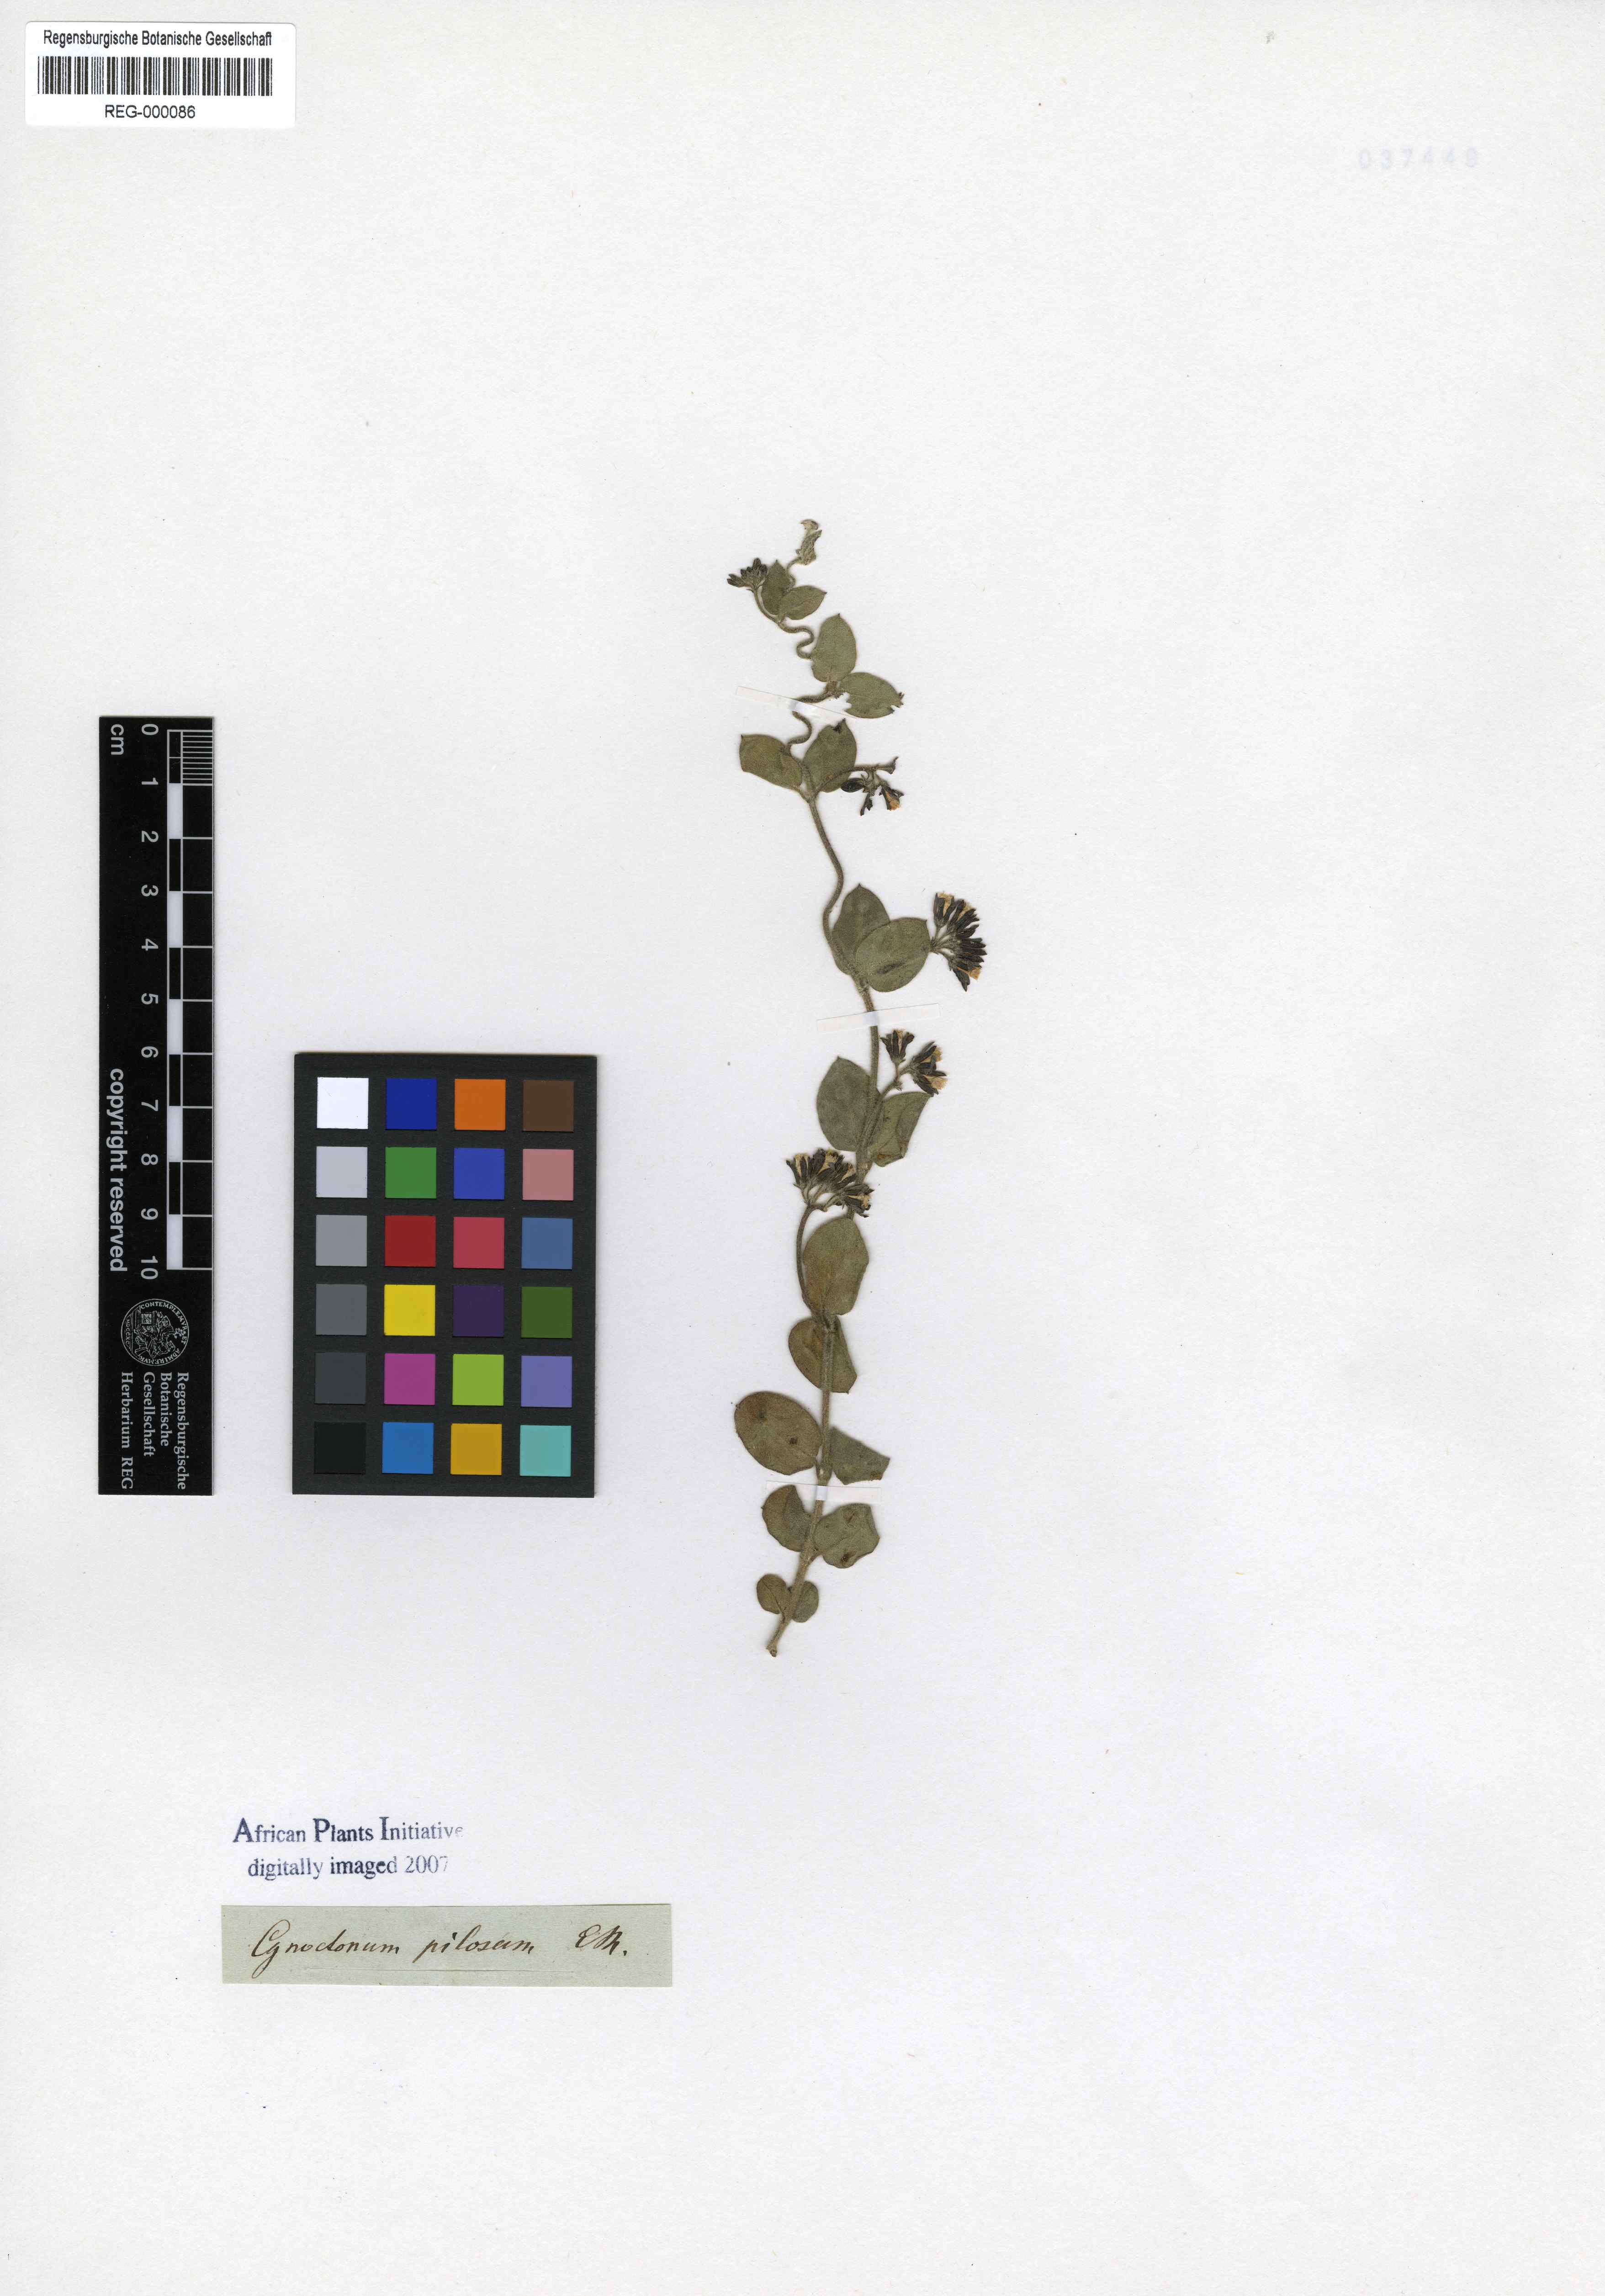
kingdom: Plantae
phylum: Tracheophyta
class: Magnoliopsida
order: Gentianales
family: Apocynaceae
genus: Cynanchum
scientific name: Cynanchum africanum
